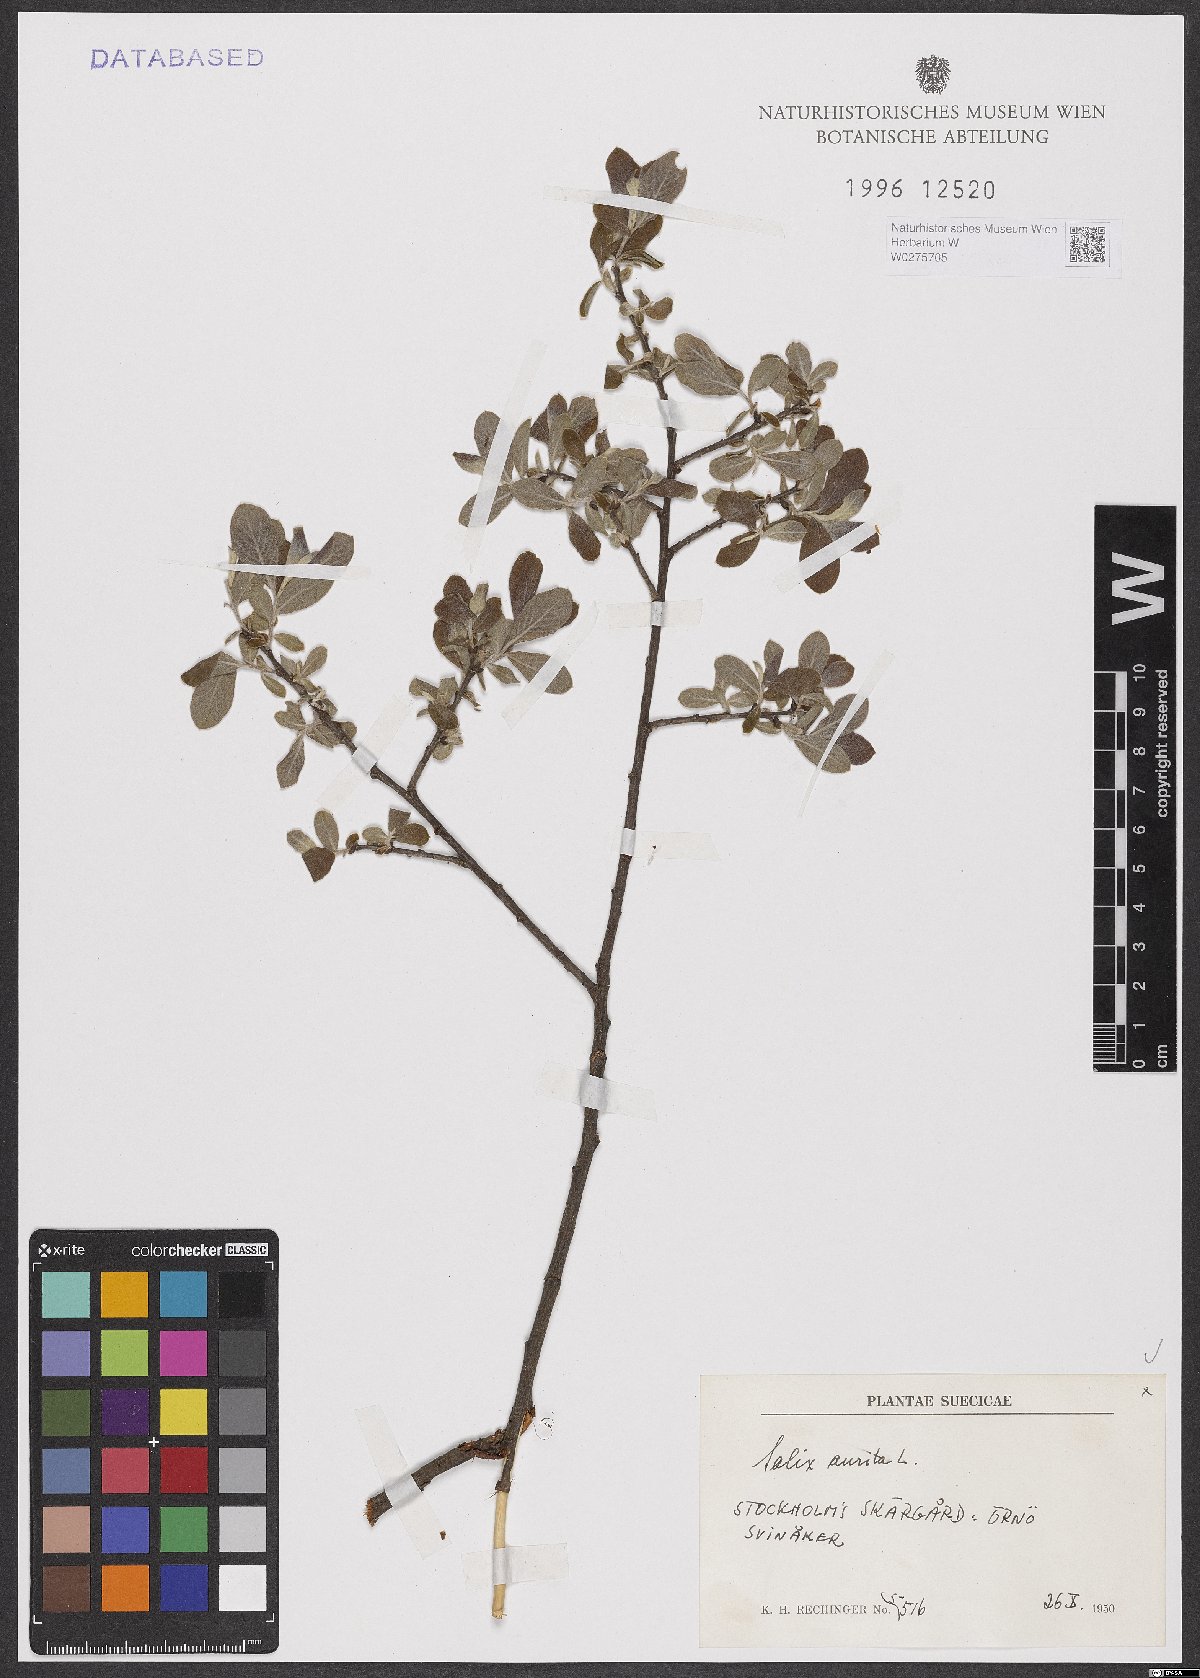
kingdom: Plantae
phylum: Tracheophyta
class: Magnoliopsida
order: Malpighiales
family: Salicaceae
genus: Salix
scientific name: Salix aurita
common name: Eared willow
